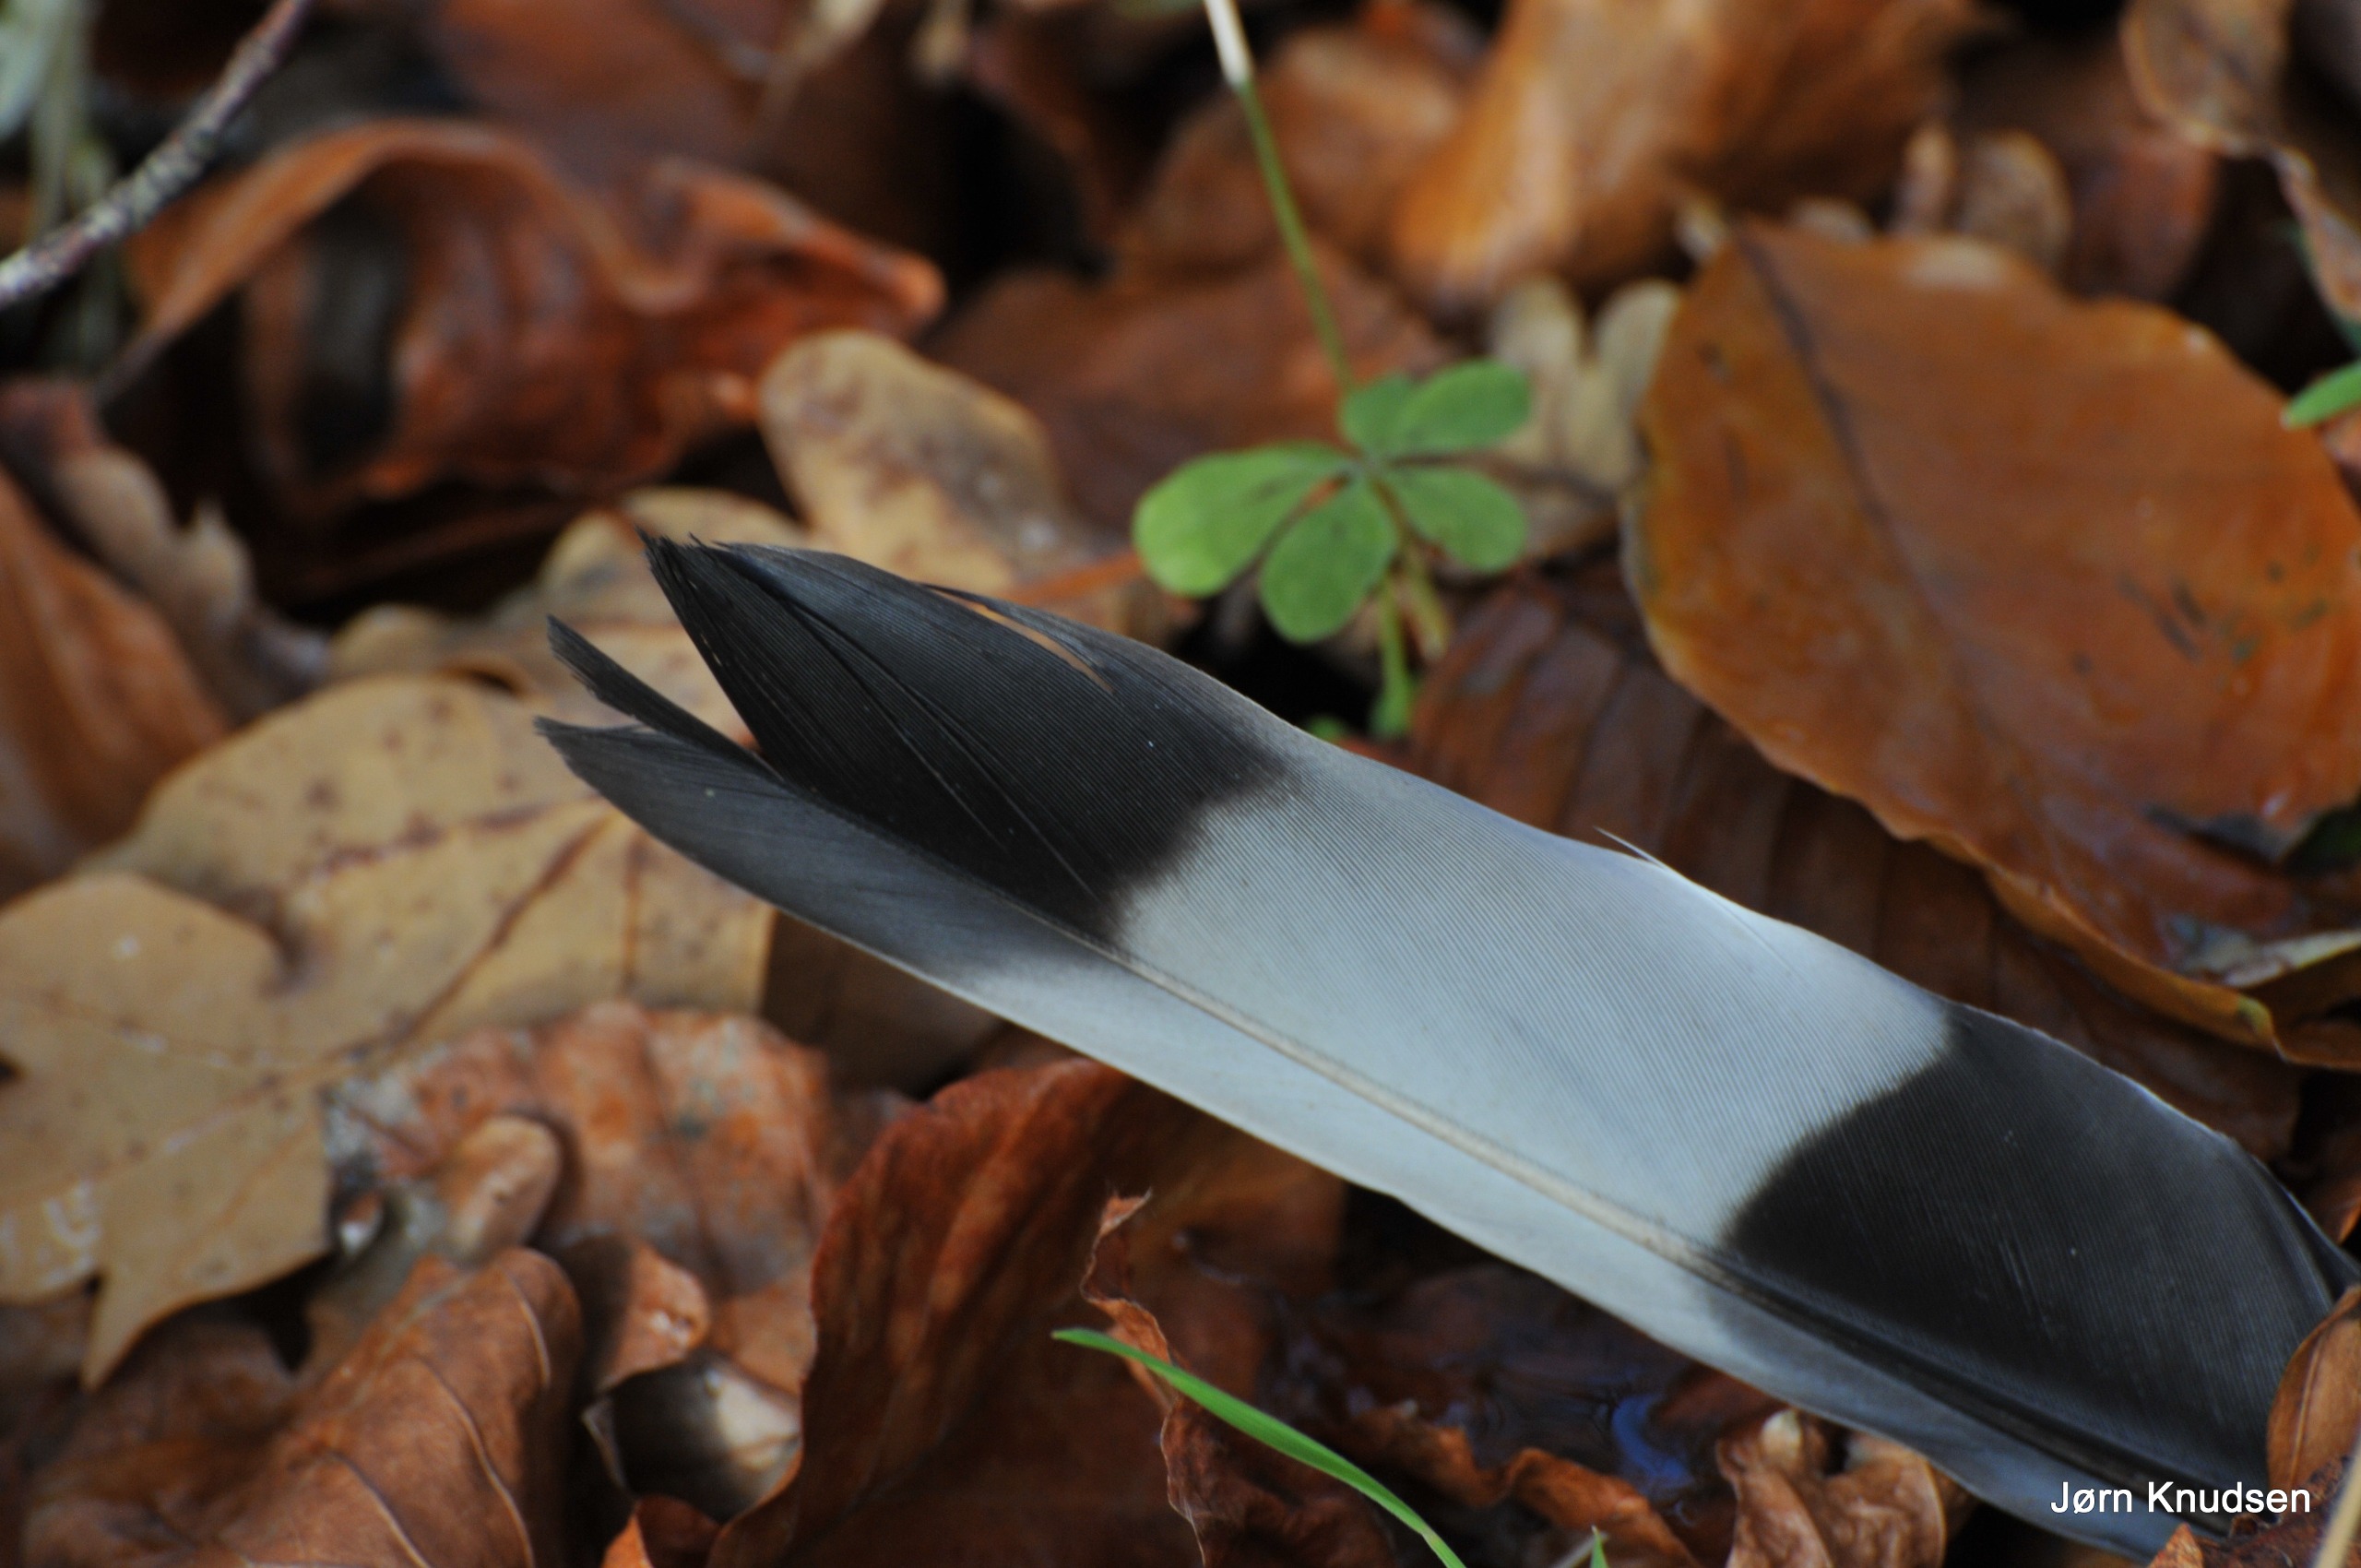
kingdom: Animalia
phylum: Chordata
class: Aves
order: Columbiformes
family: Columbidae
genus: Columba
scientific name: Columba palumbus
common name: Ringdue
